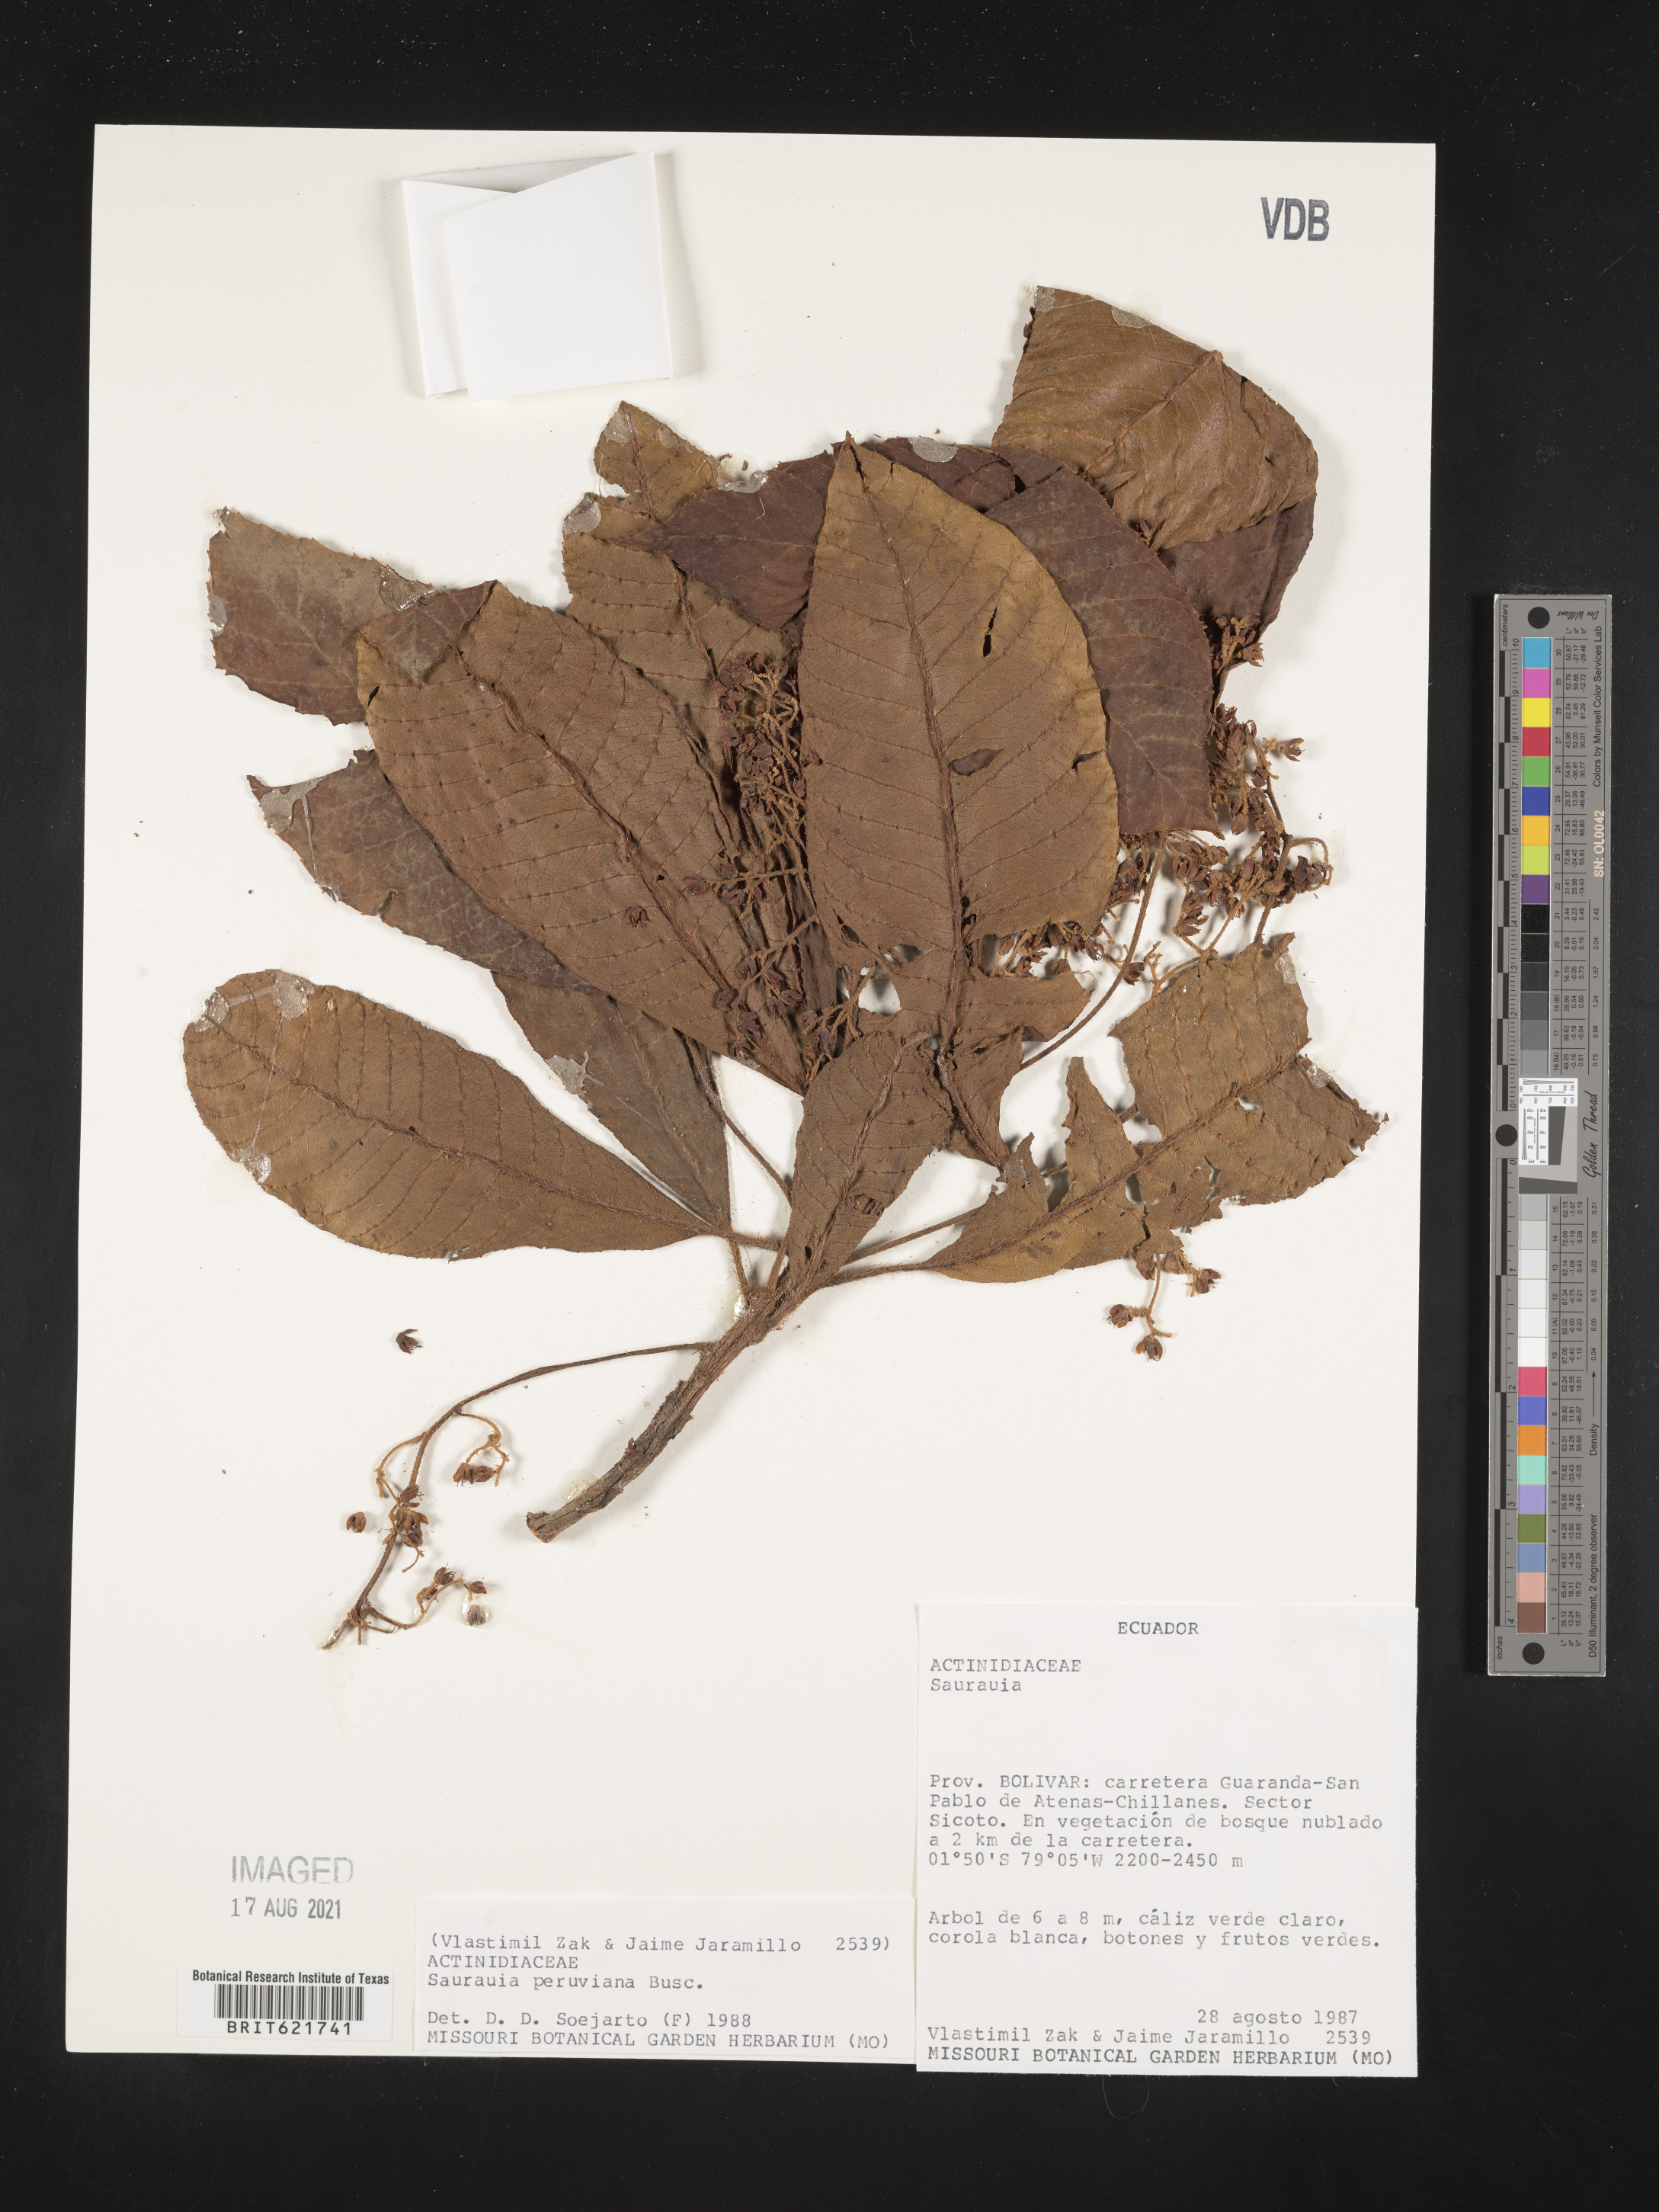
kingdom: Plantae
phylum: Tracheophyta
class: Magnoliopsida
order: Ericales
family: Actinidiaceae
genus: Saurauia
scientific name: Saurauia peruviana
